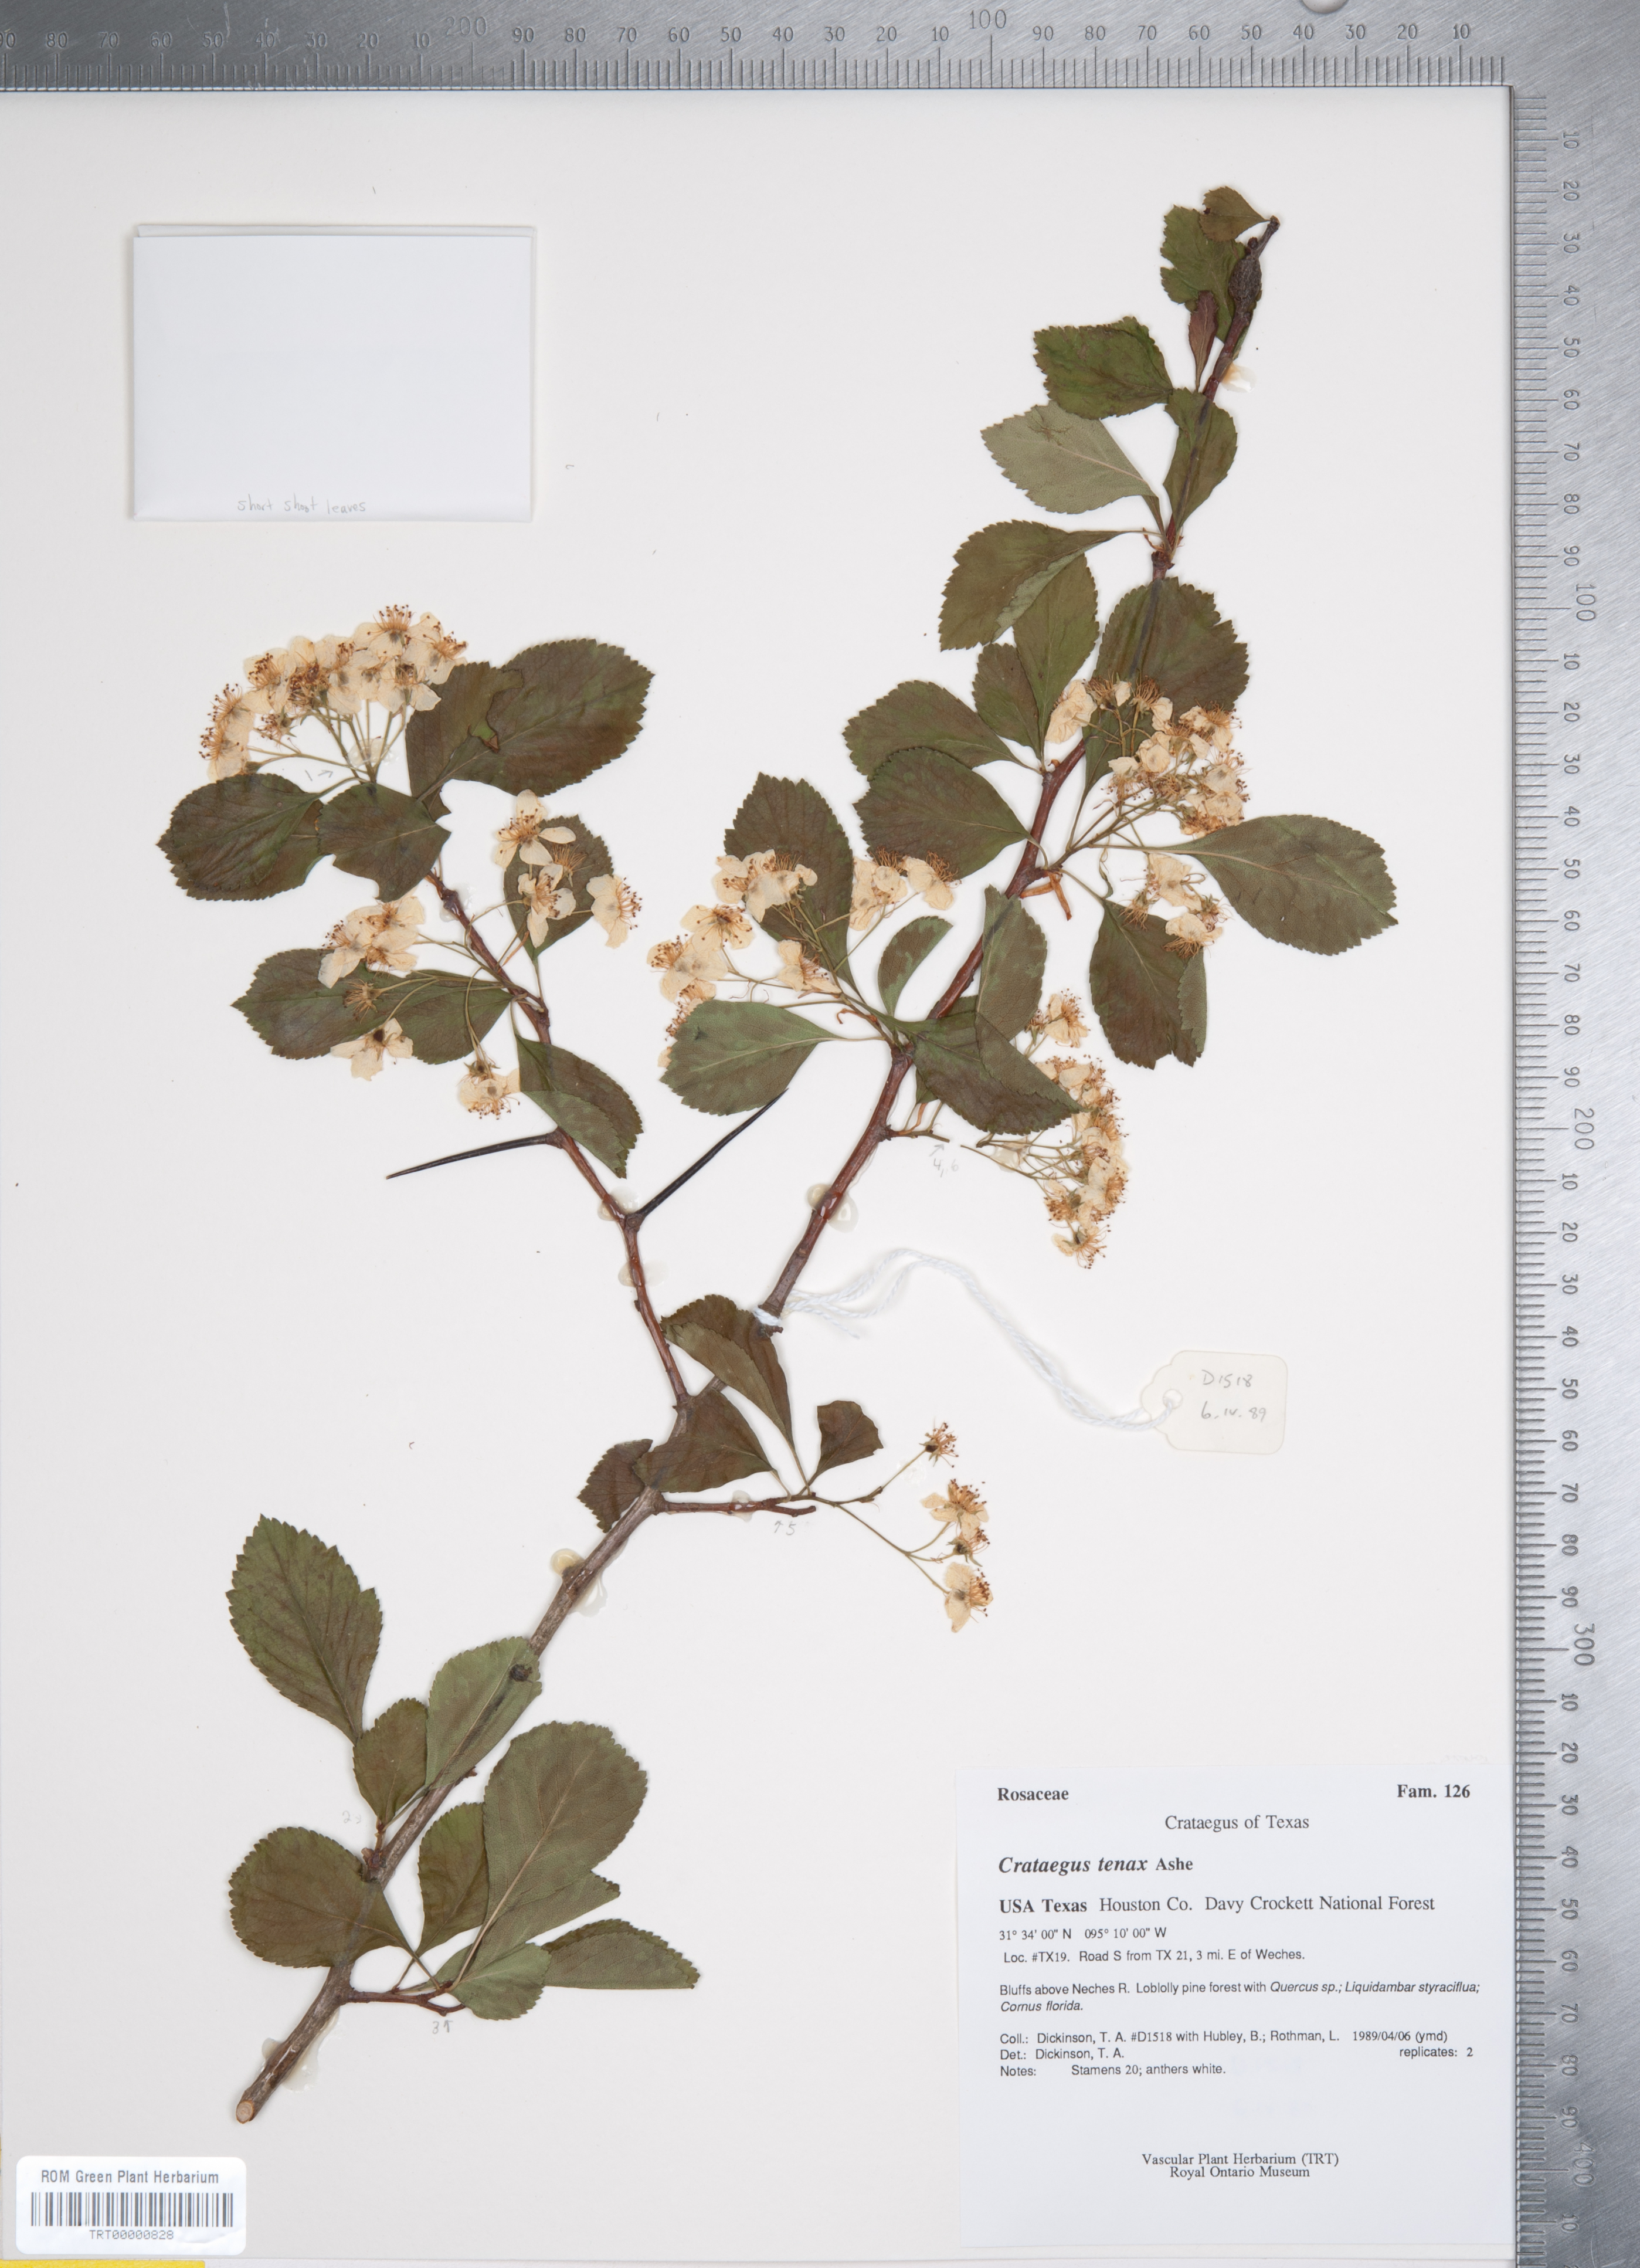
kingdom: Plantae
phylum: Tracheophyta
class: Magnoliopsida
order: Rosales
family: Rosaceae
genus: Crataegus
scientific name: Crataegus crus-galli
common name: Cockspurthorn
